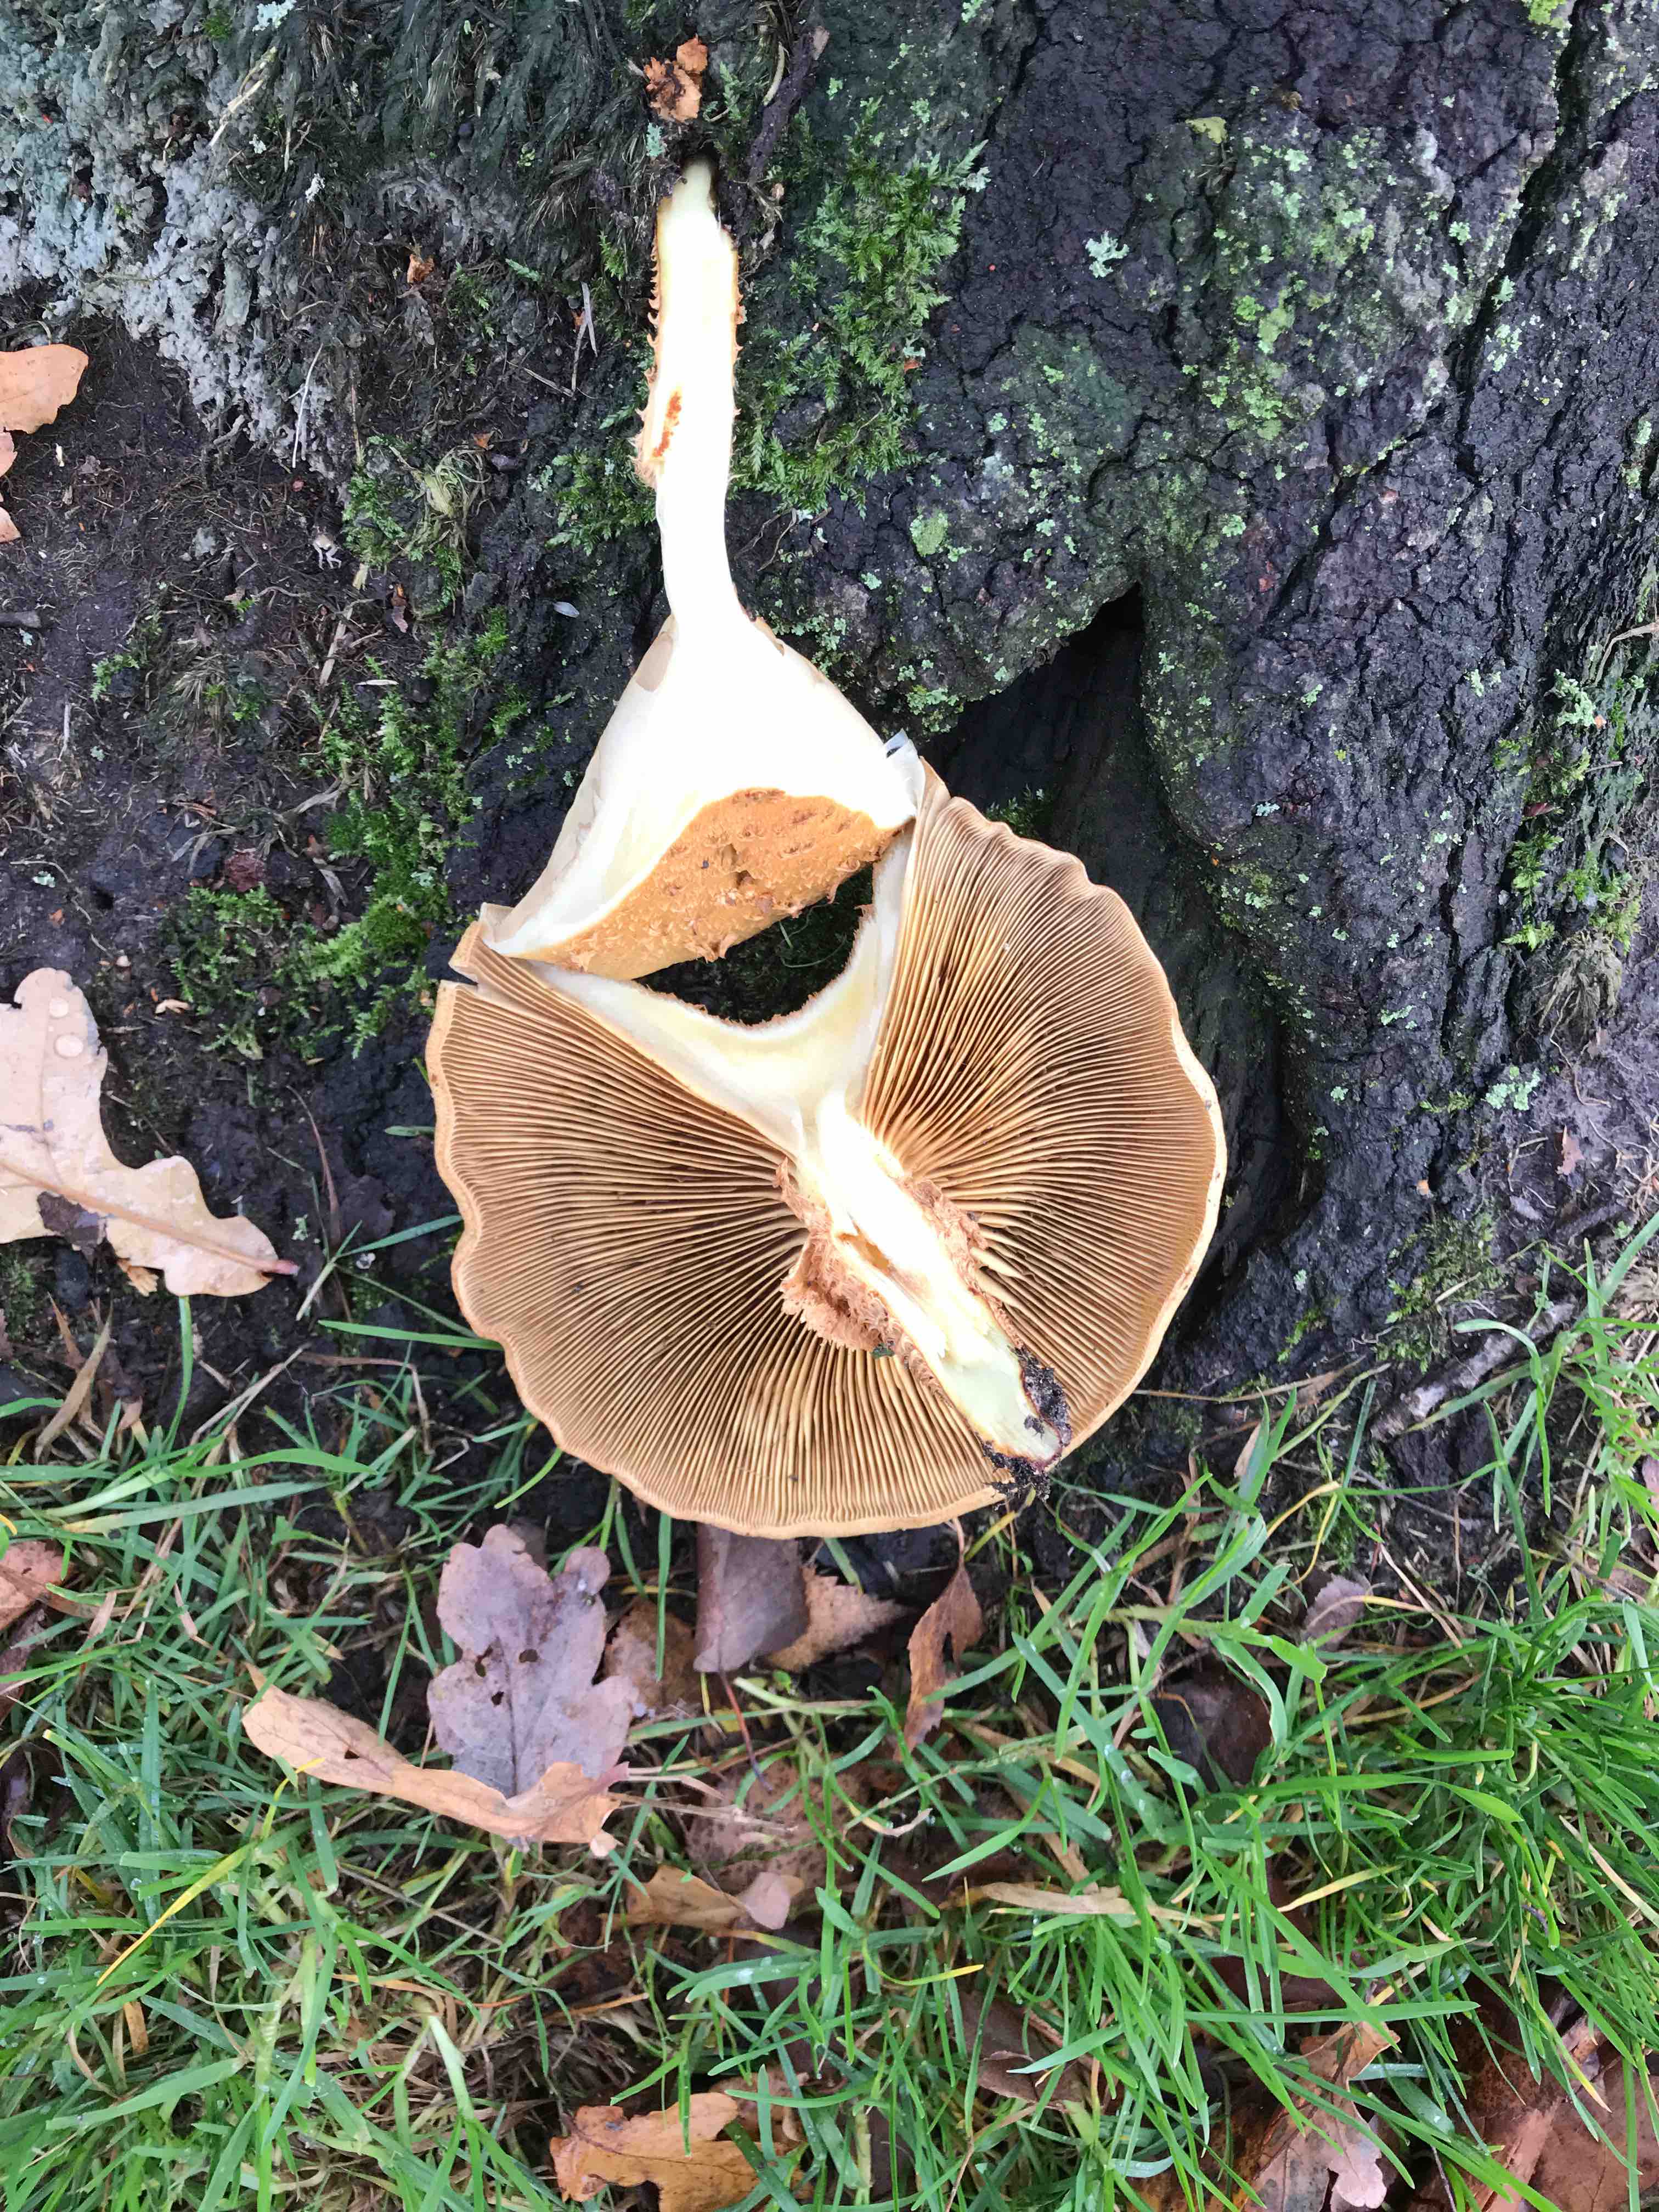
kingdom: Fungi
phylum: Basidiomycota
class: Agaricomycetes
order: Agaricales
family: Strophariaceae
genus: Pholiota
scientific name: Pholiota squarrosa
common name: krumskællet skælhat
